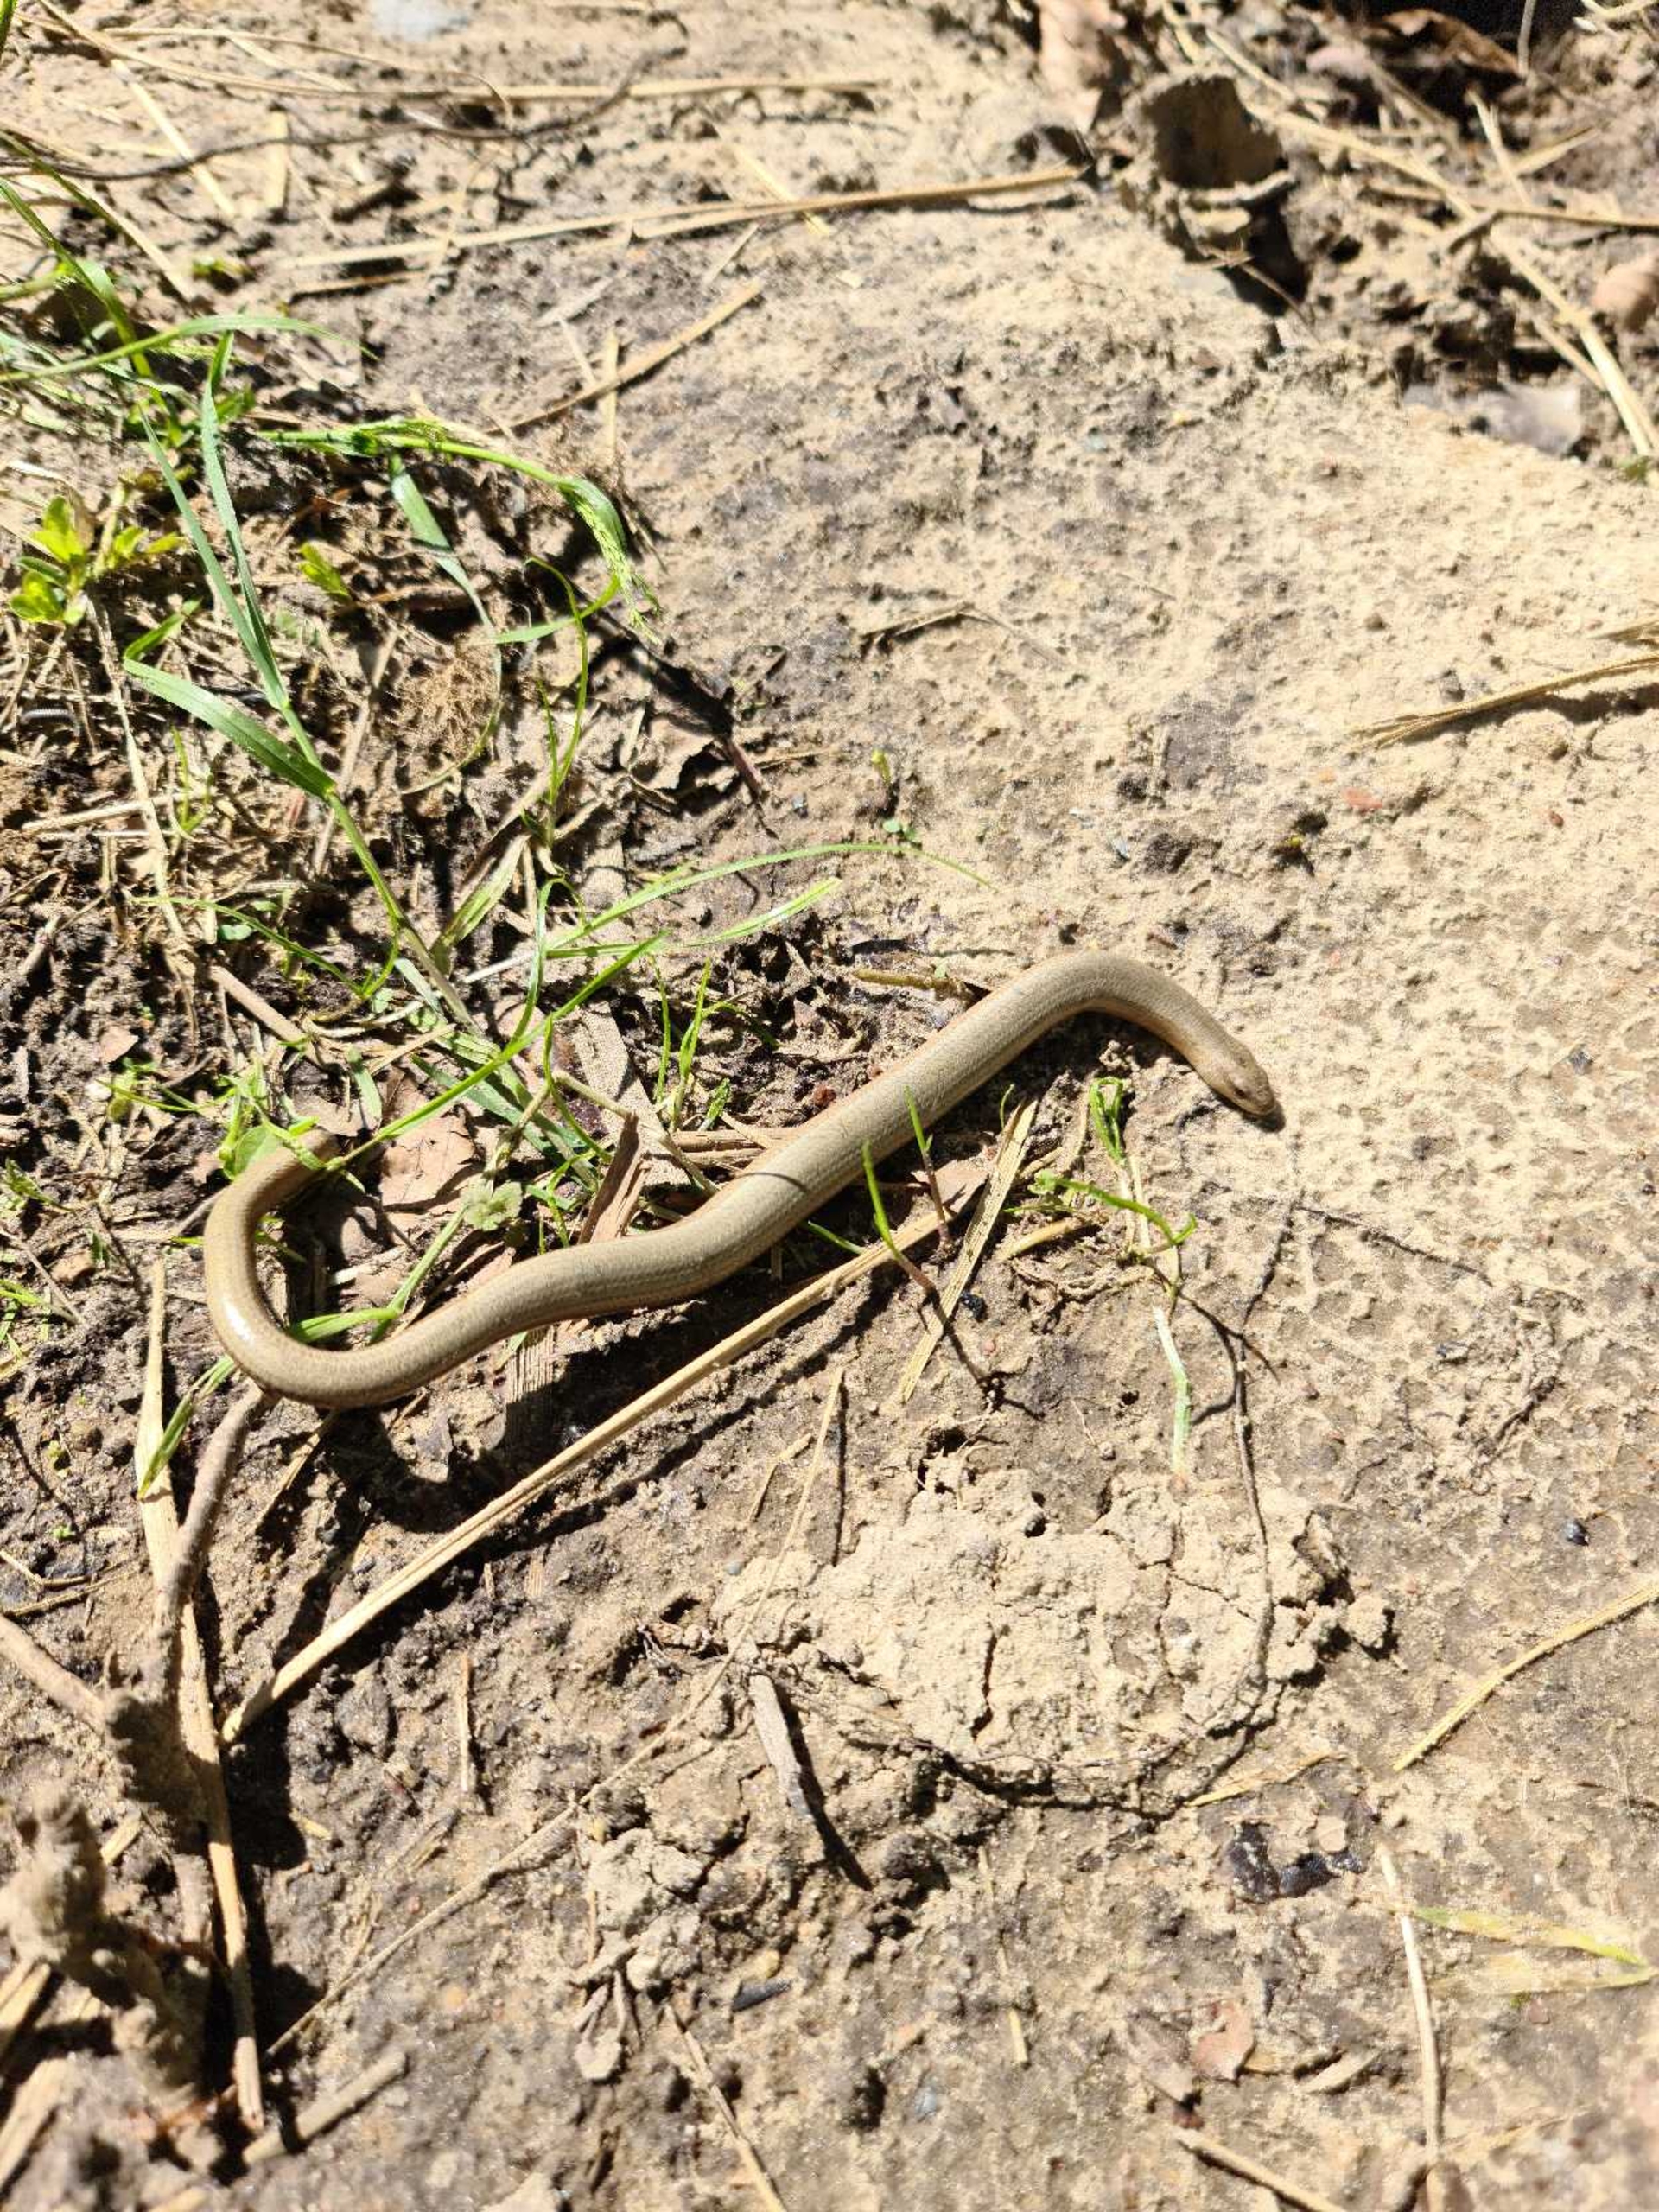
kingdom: Animalia
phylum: Chordata
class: Squamata
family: Anguidae
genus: Anguis
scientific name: Anguis fragilis
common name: Stålorm
